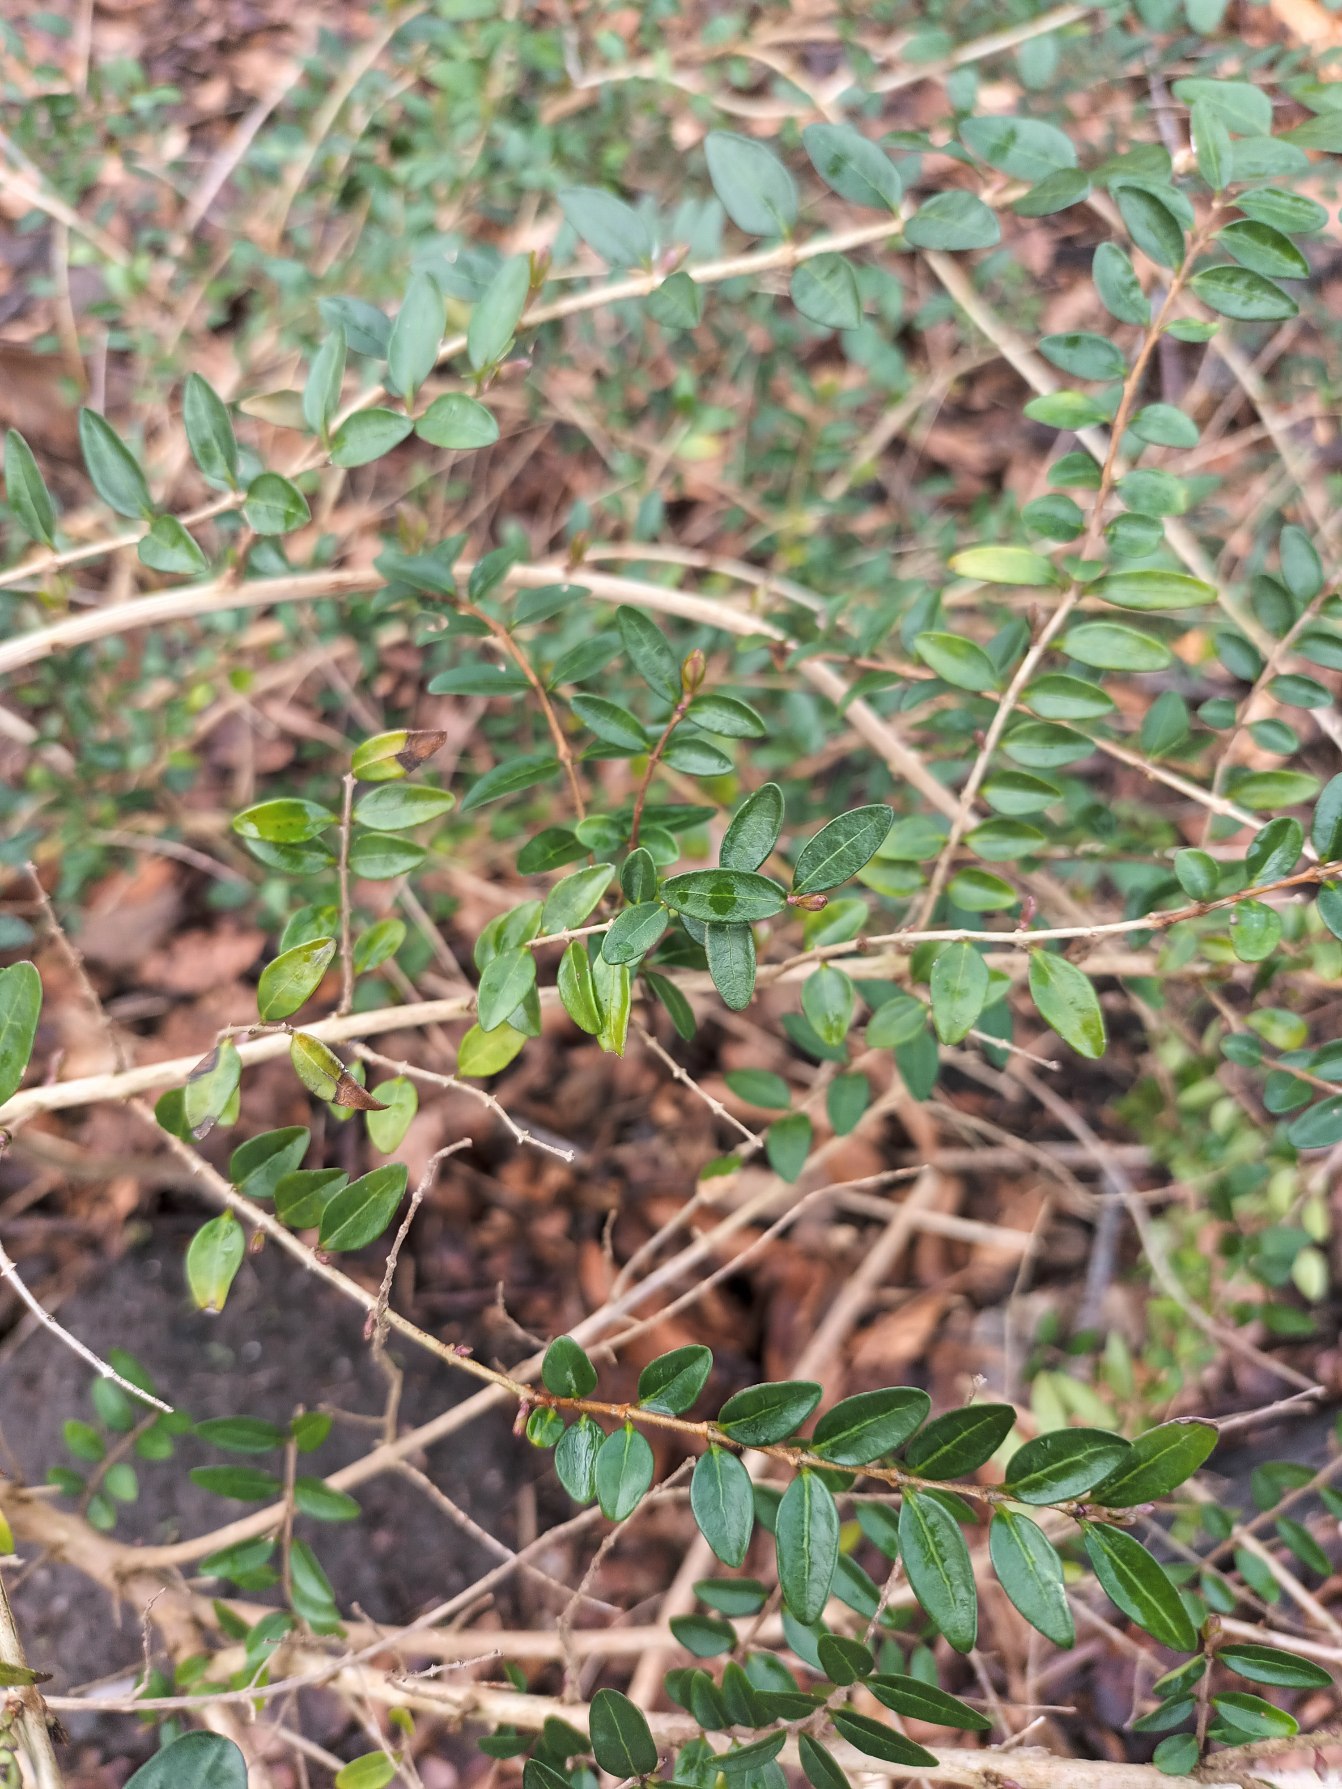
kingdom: Plantae
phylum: Tracheophyta
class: Magnoliopsida
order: Dipsacales
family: Caprifoliaceae
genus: Lonicera
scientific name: Lonicera pileata
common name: Liguster-gedeblad
